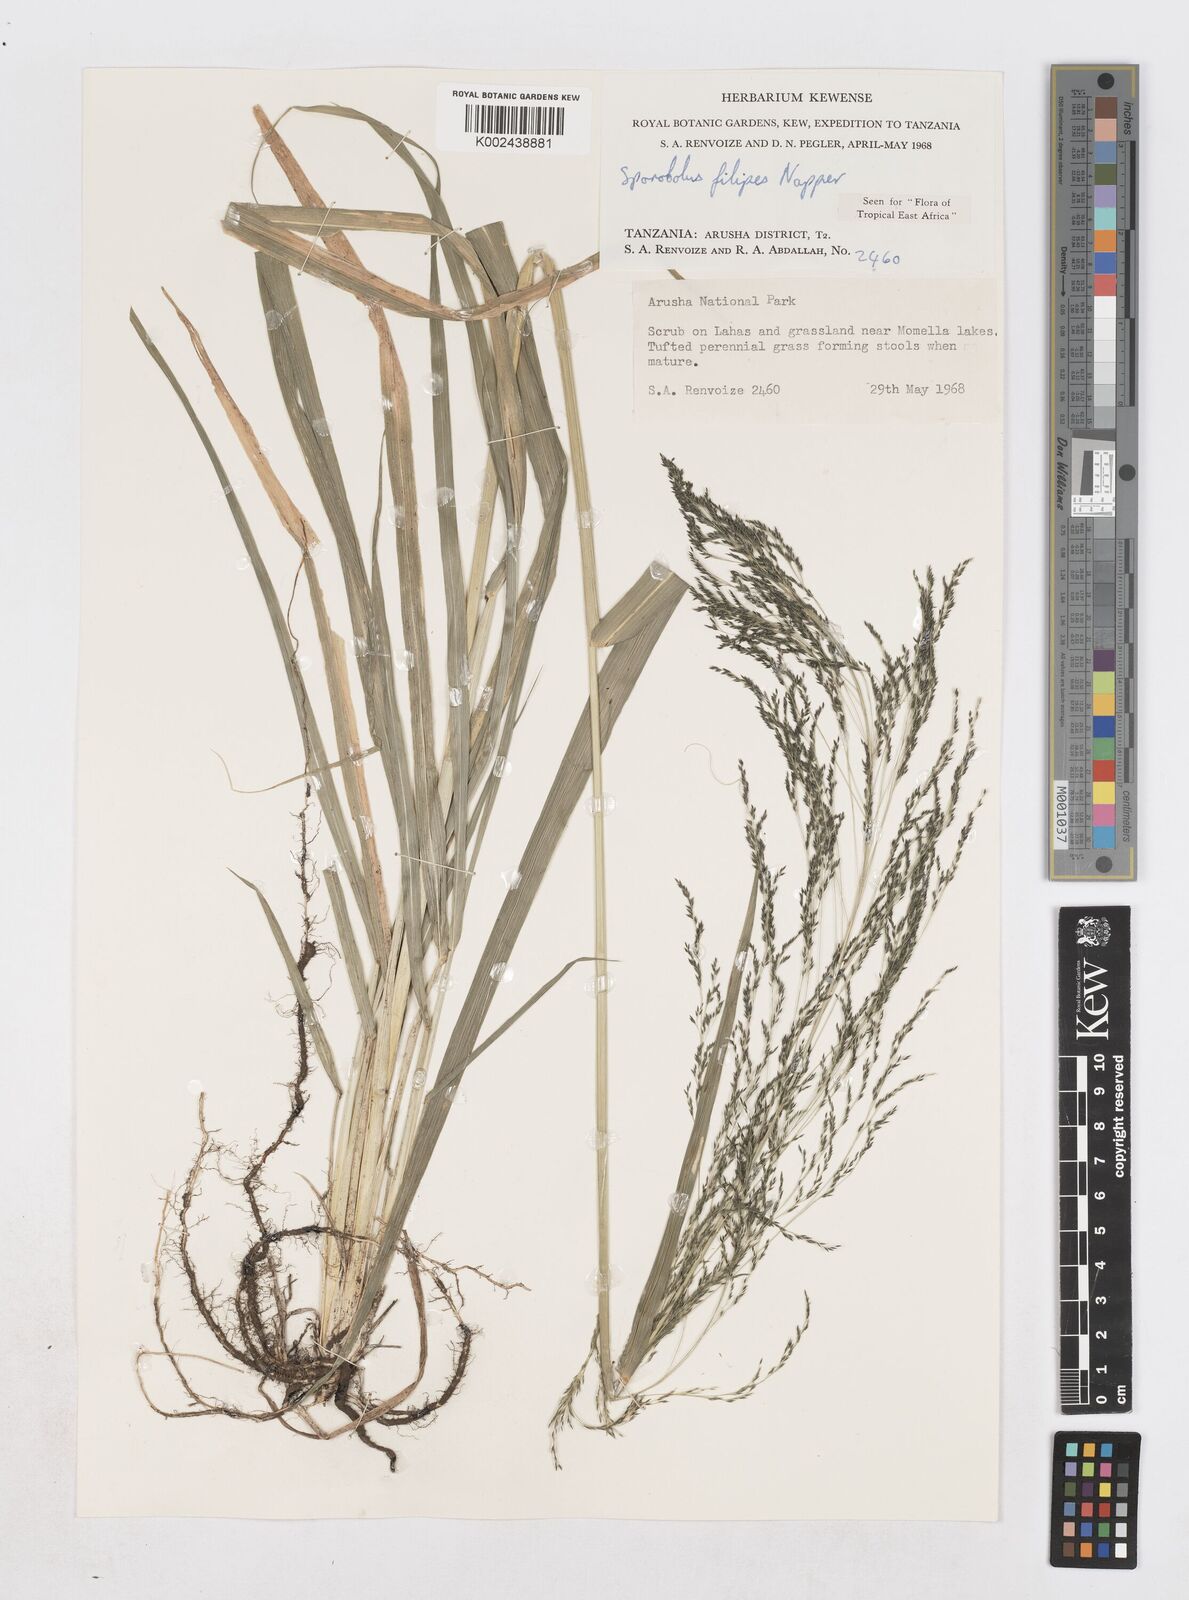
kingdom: Plantae
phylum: Tracheophyta
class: Liliopsida
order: Poales
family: Poaceae
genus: Sporobolus
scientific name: Sporobolus agrostoides
